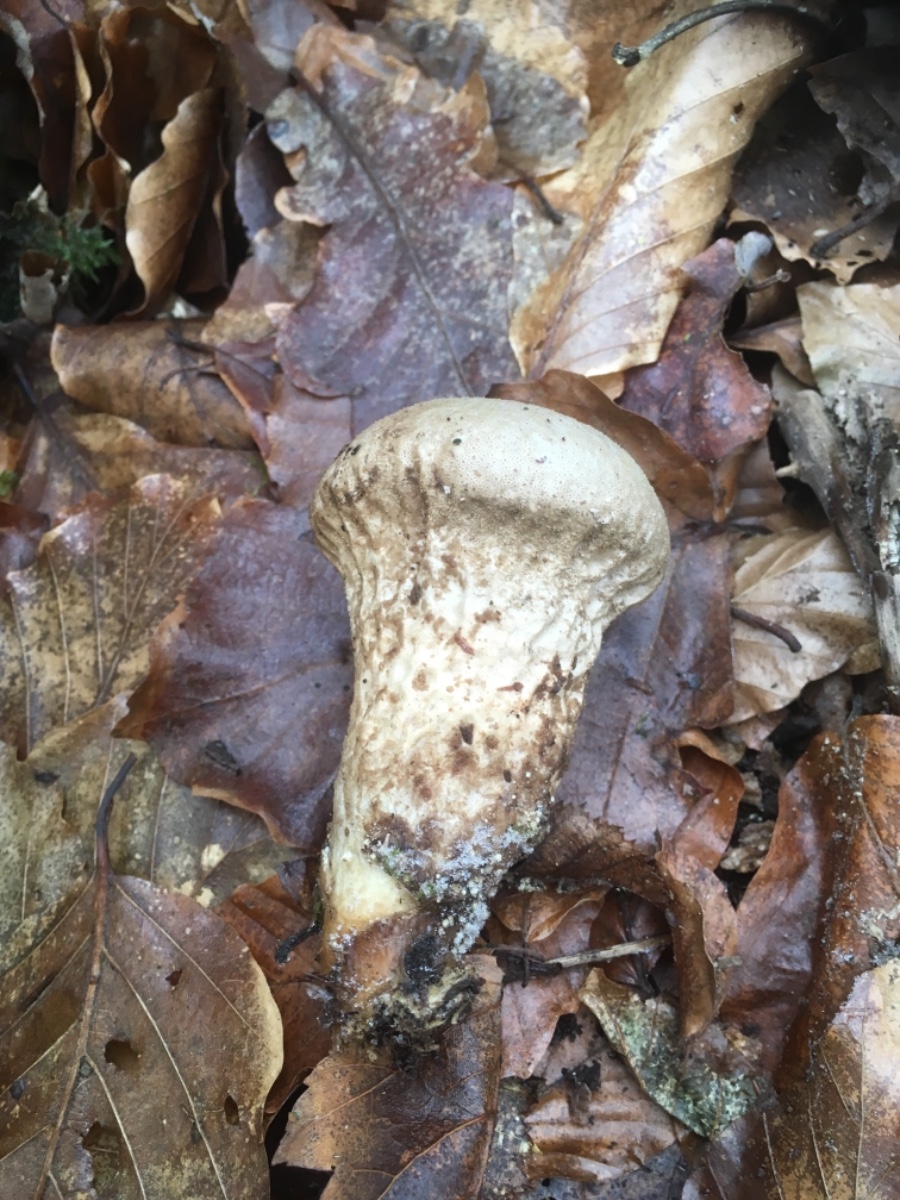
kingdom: Fungi
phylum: Basidiomycota
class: Agaricomycetes
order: Agaricales
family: Lycoperdaceae
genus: Lycoperdon
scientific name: Lycoperdon perlatum
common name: krystal-støvbold
